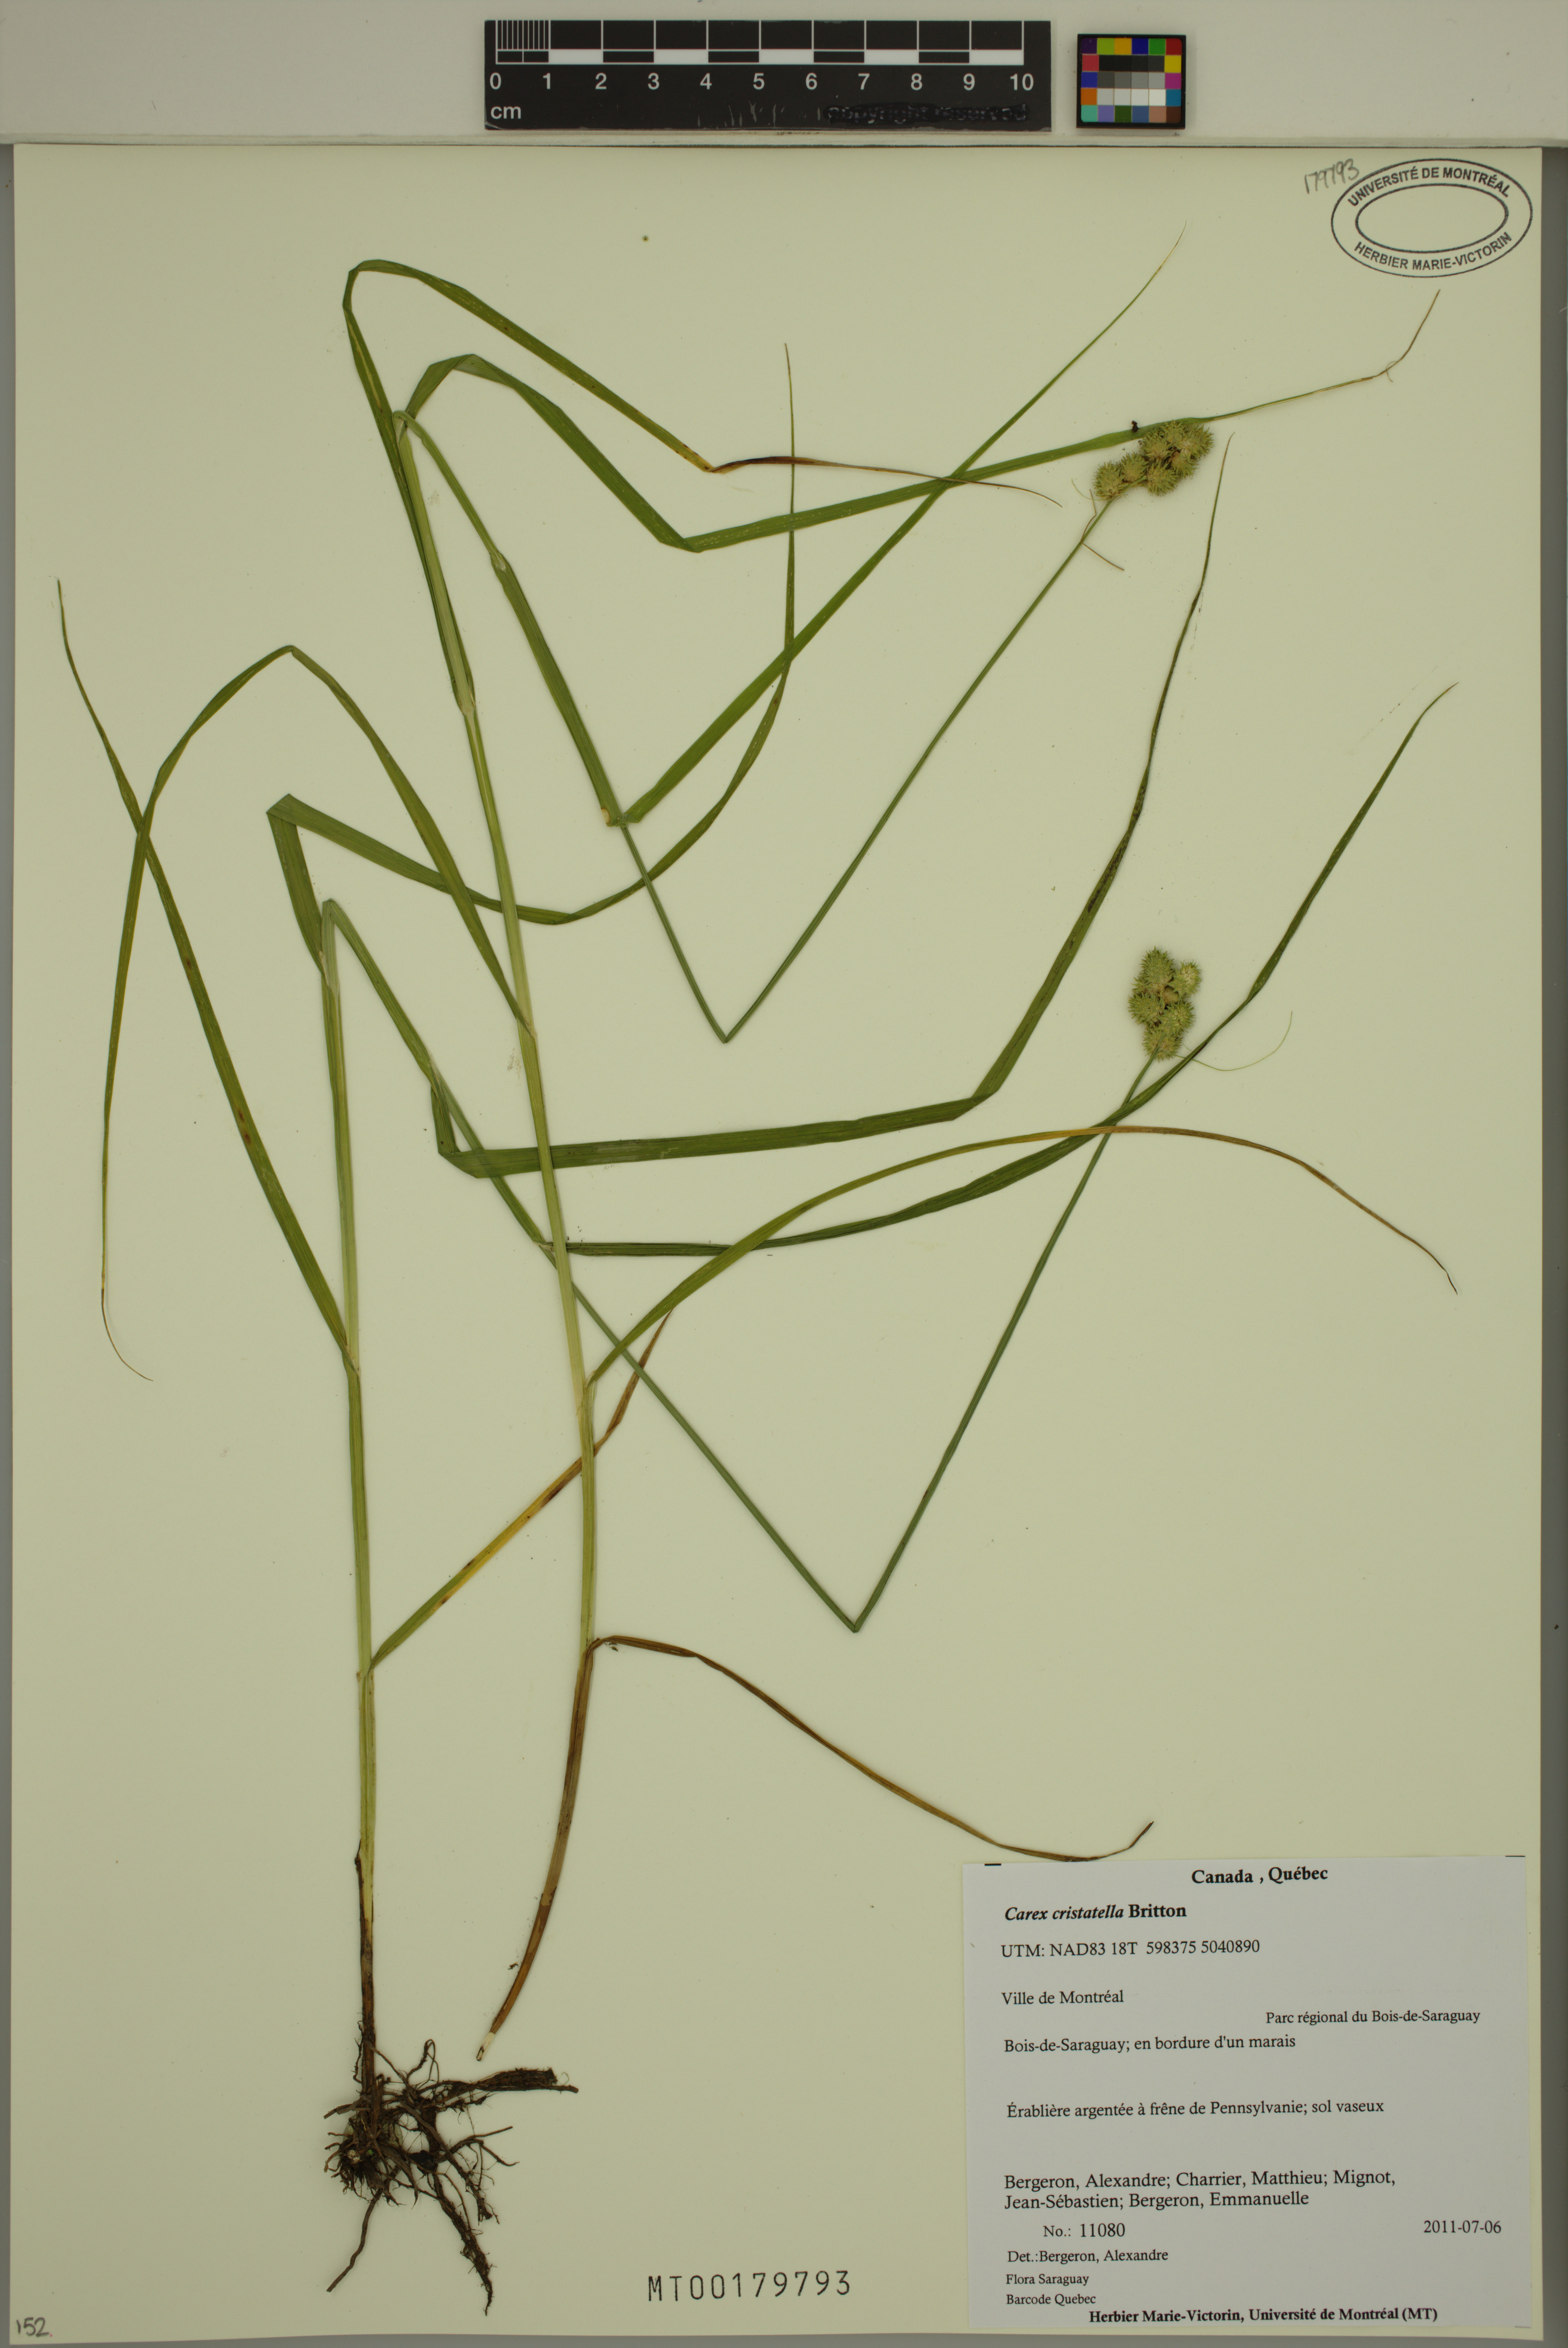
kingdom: Plantae
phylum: Tracheophyta
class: Liliopsida
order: Poales
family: Cyperaceae
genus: Carex
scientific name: Carex cristatella
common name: Crested oval sedge
